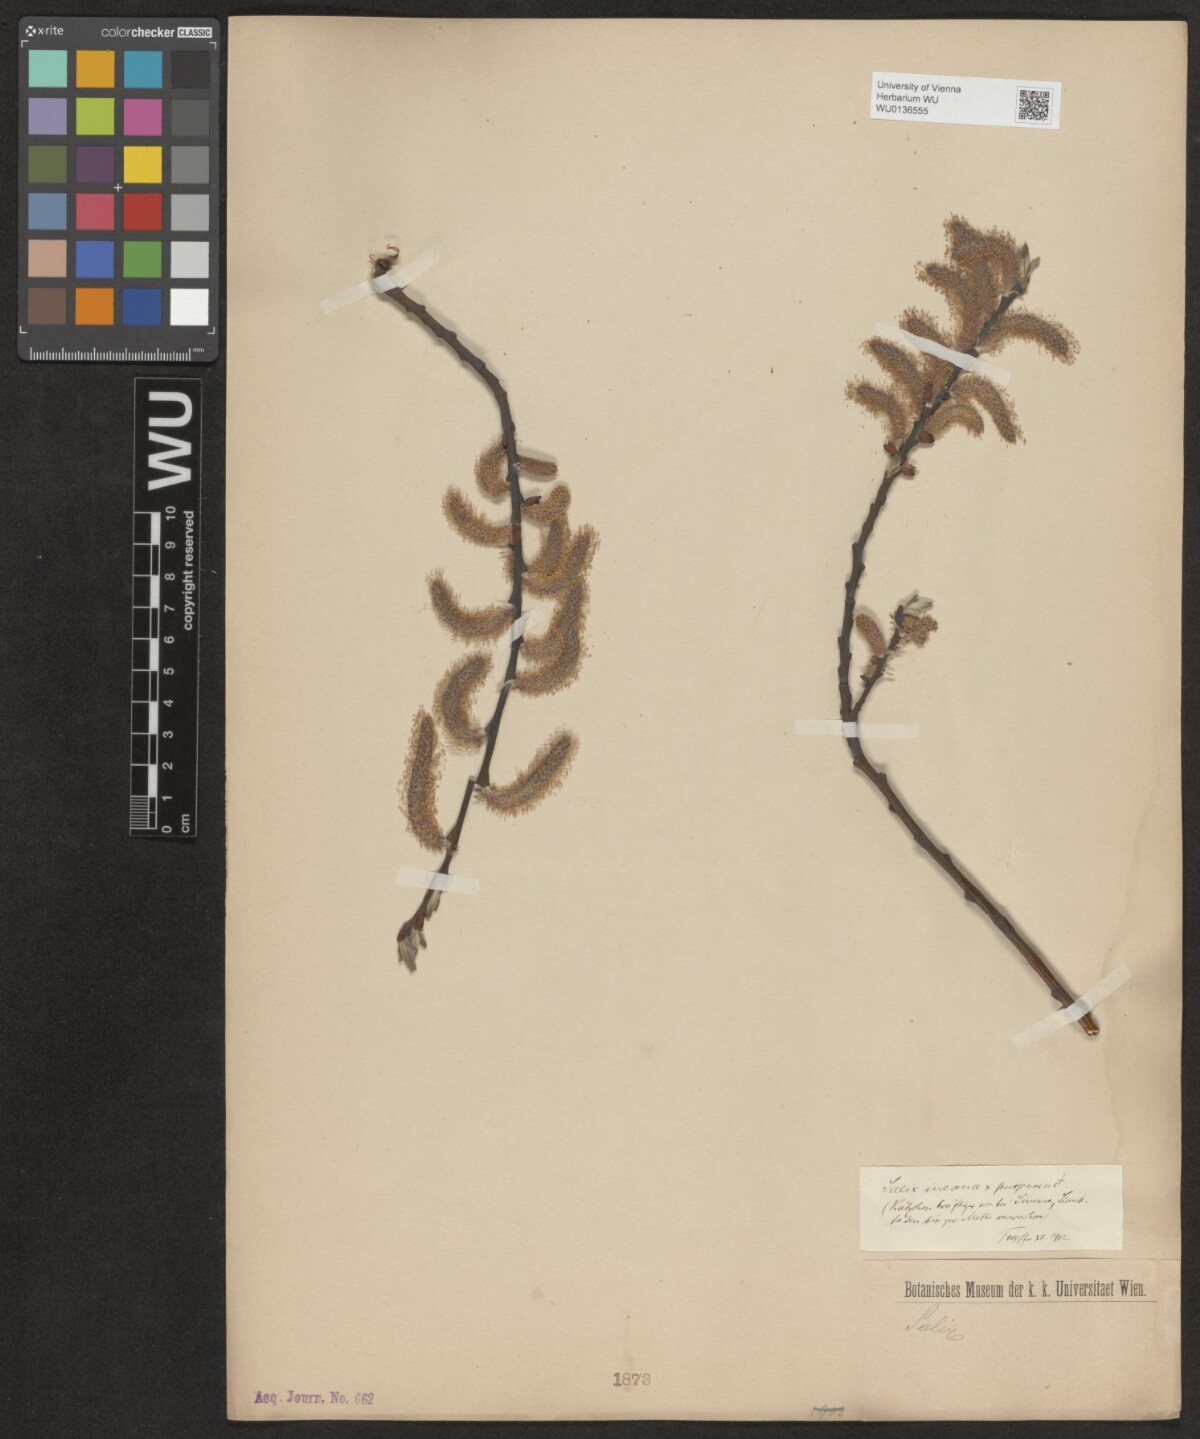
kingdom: Plantae
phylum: Tracheophyta
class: Magnoliopsida
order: Malpighiales
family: Salicaceae
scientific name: Salicaceae
